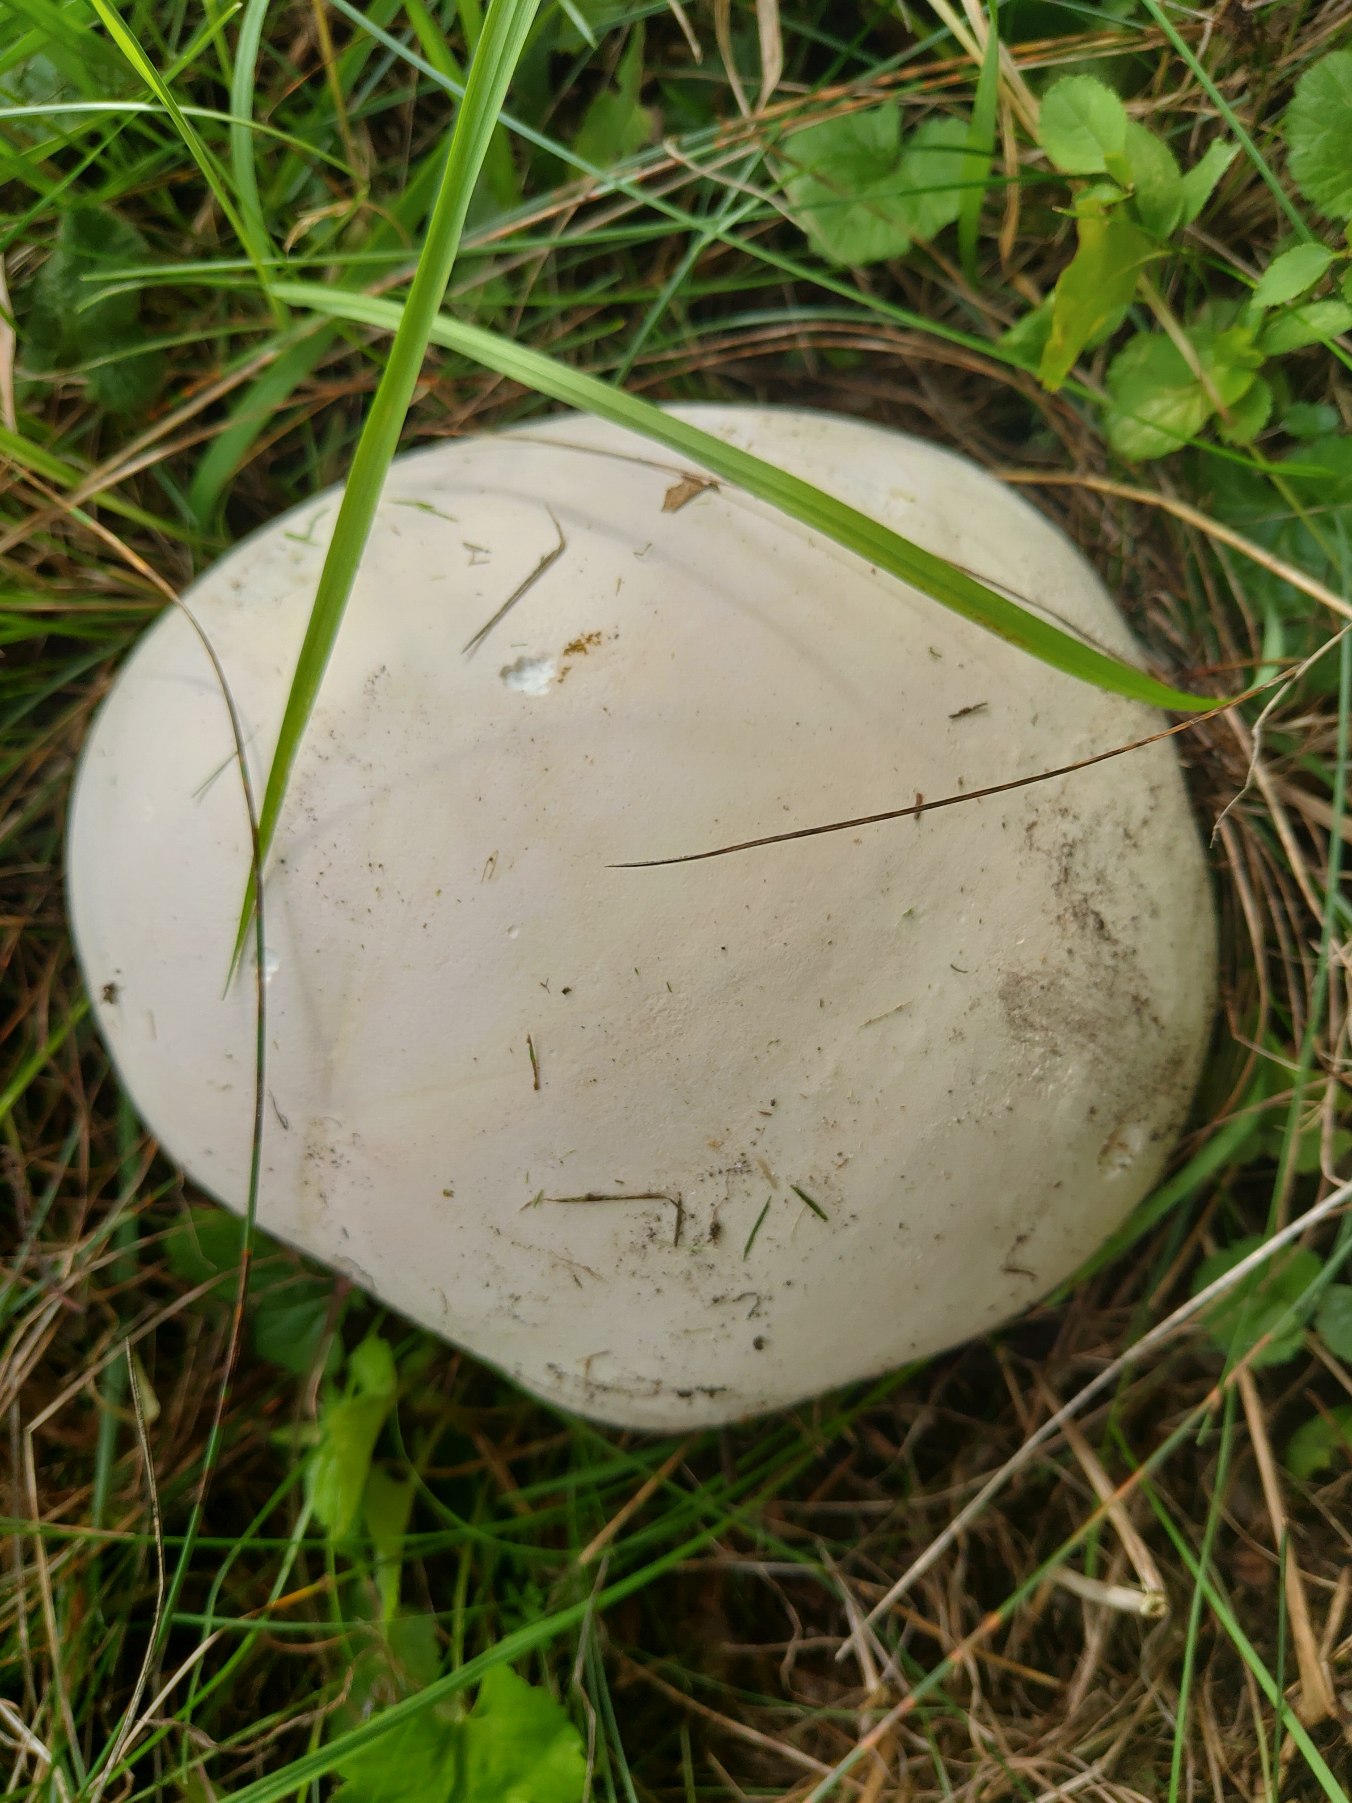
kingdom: Fungi
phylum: Basidiomycota
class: Agaricomycetes
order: Agaricales
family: Lycoperdaceae
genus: Calvatia
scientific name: Calvatia gigantea
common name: Kæmpestøvbold
